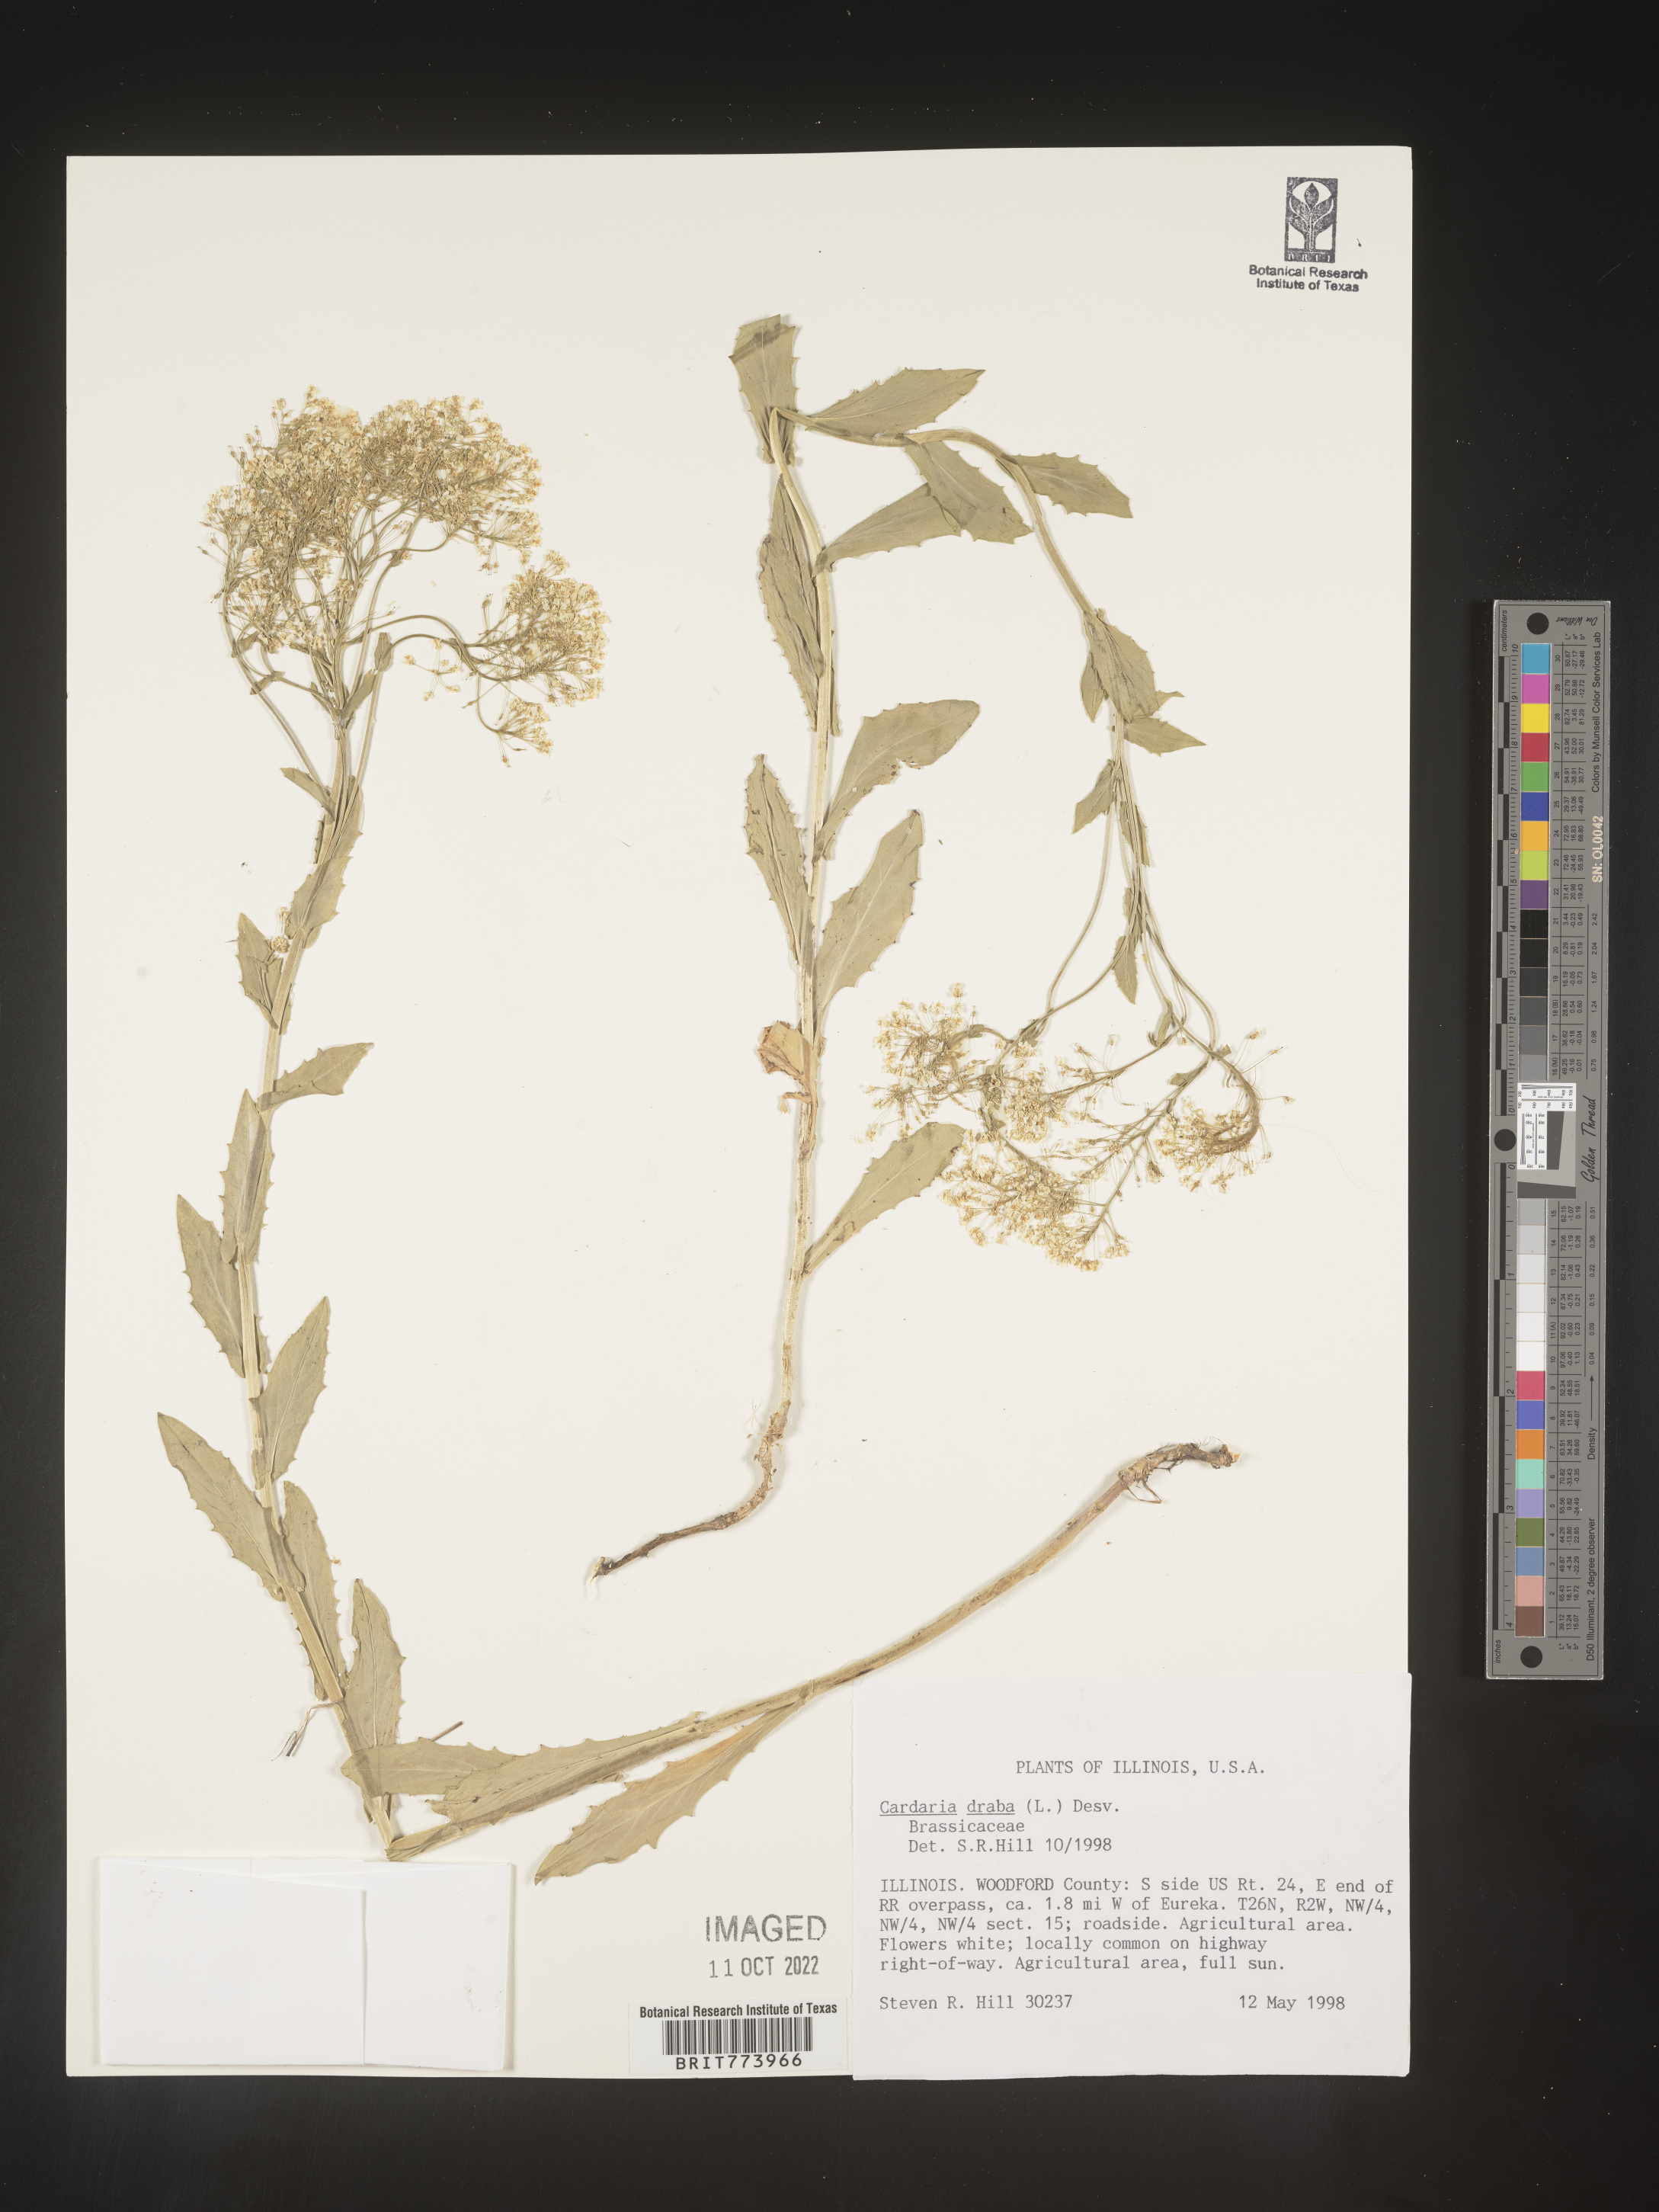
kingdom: Plantae
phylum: Tracheophyta
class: Magnoliopsida
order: Brassicales
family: Brassicaceae
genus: Lepidium
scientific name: Lepidium draba
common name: Hoary cress
